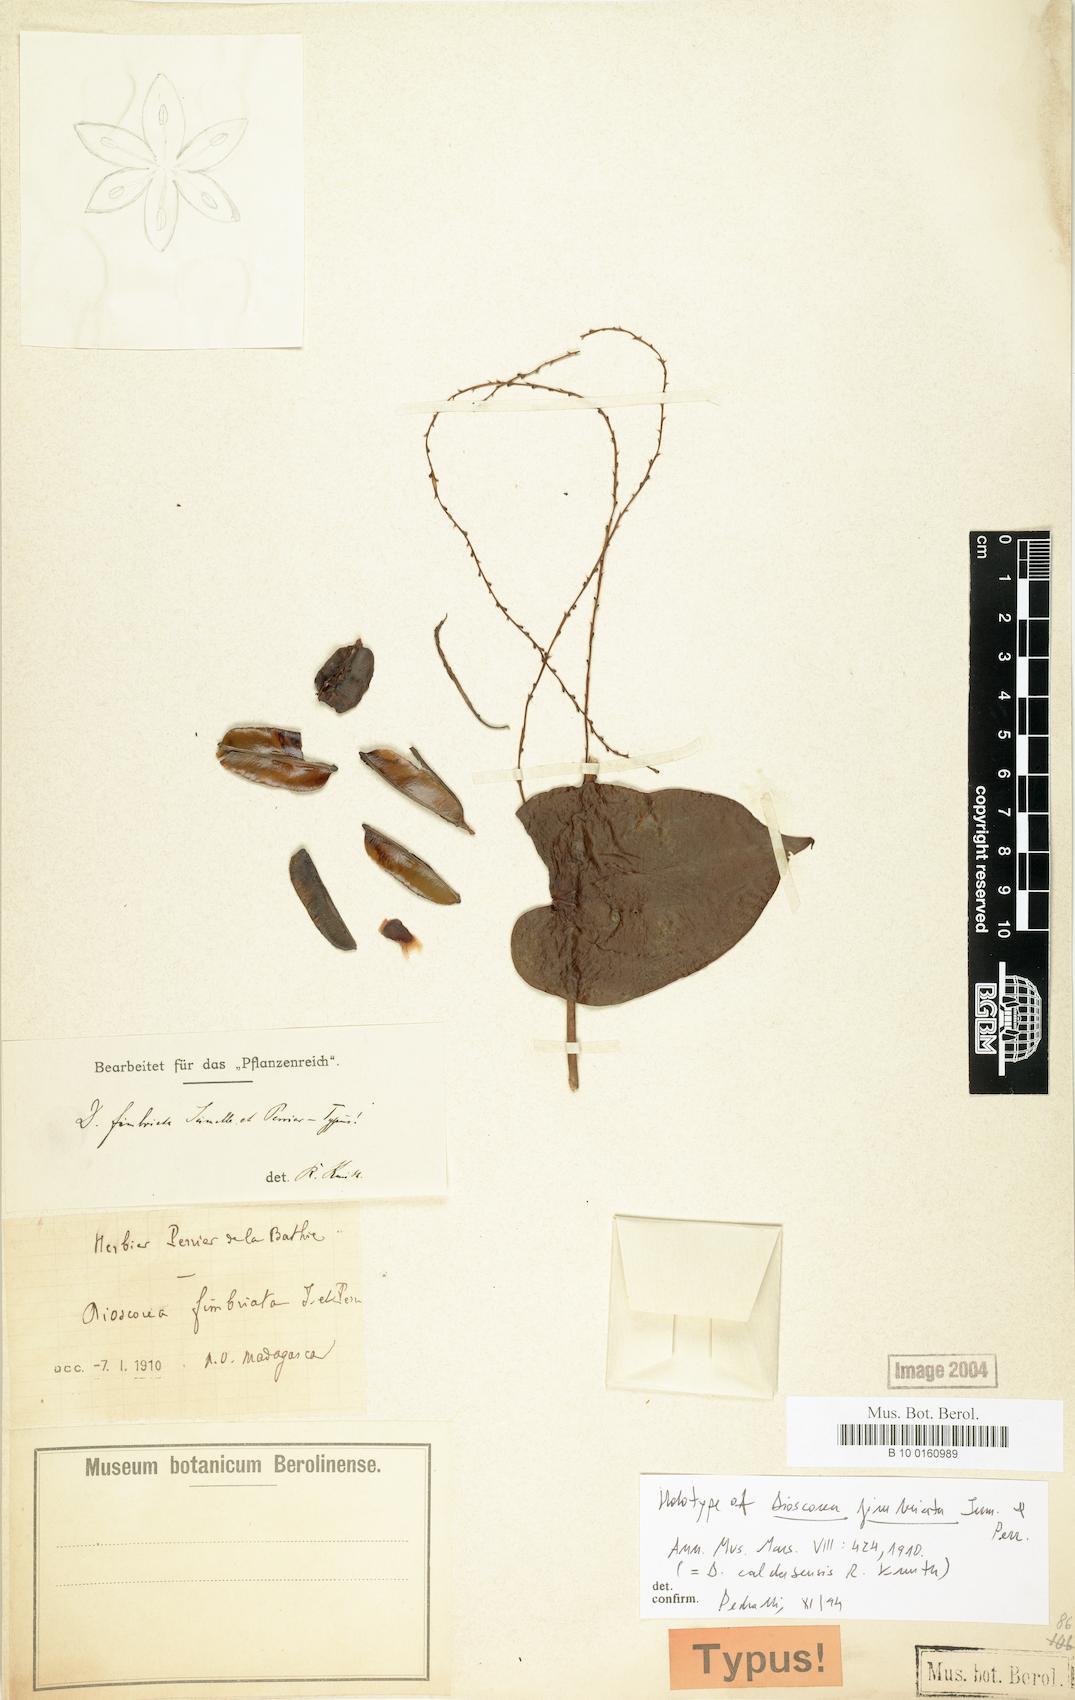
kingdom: Plantae
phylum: Tracheophyta
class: Liliopsida
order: Dioscoreales
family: Dioscoreaceae
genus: Dioscorea
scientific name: Dioscorea sambiranensis
